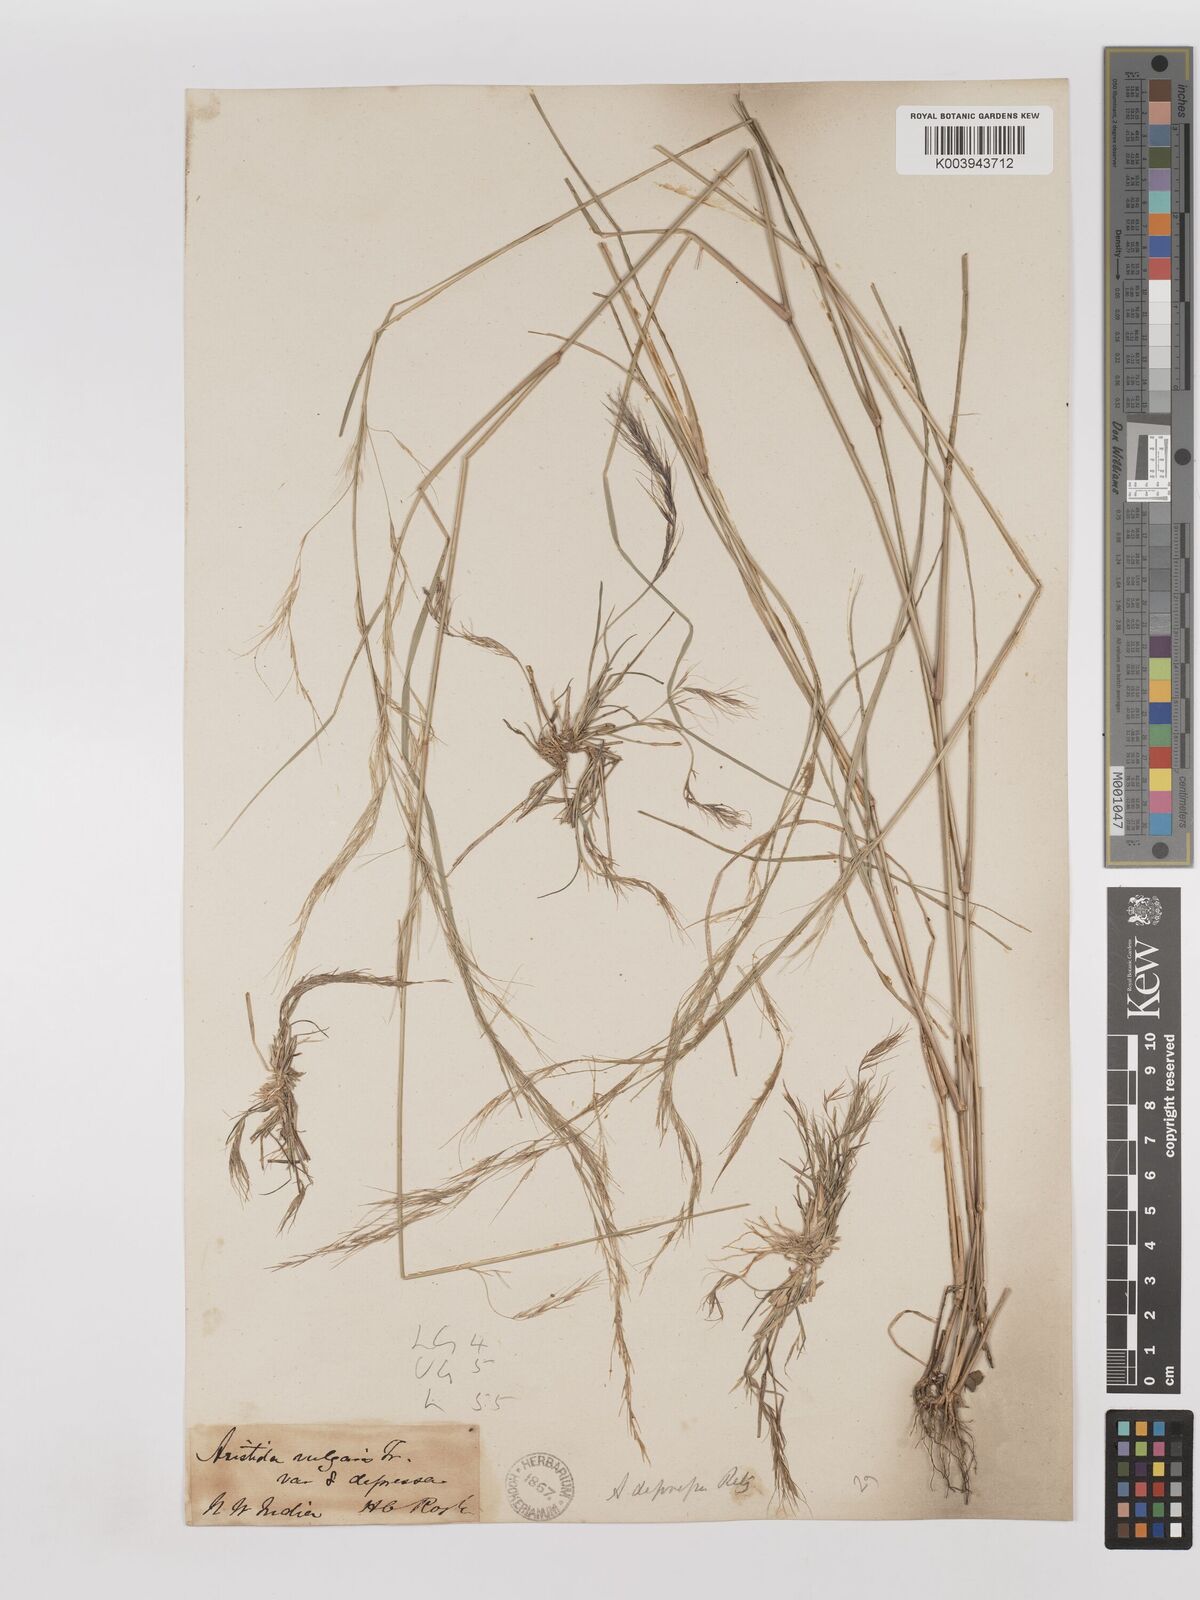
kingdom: Plantae
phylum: Tracheophyta
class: Liliopsida
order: Poales
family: Poaceae
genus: Aristida
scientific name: Aristida adscensionis
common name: Sixweeks threeawn
